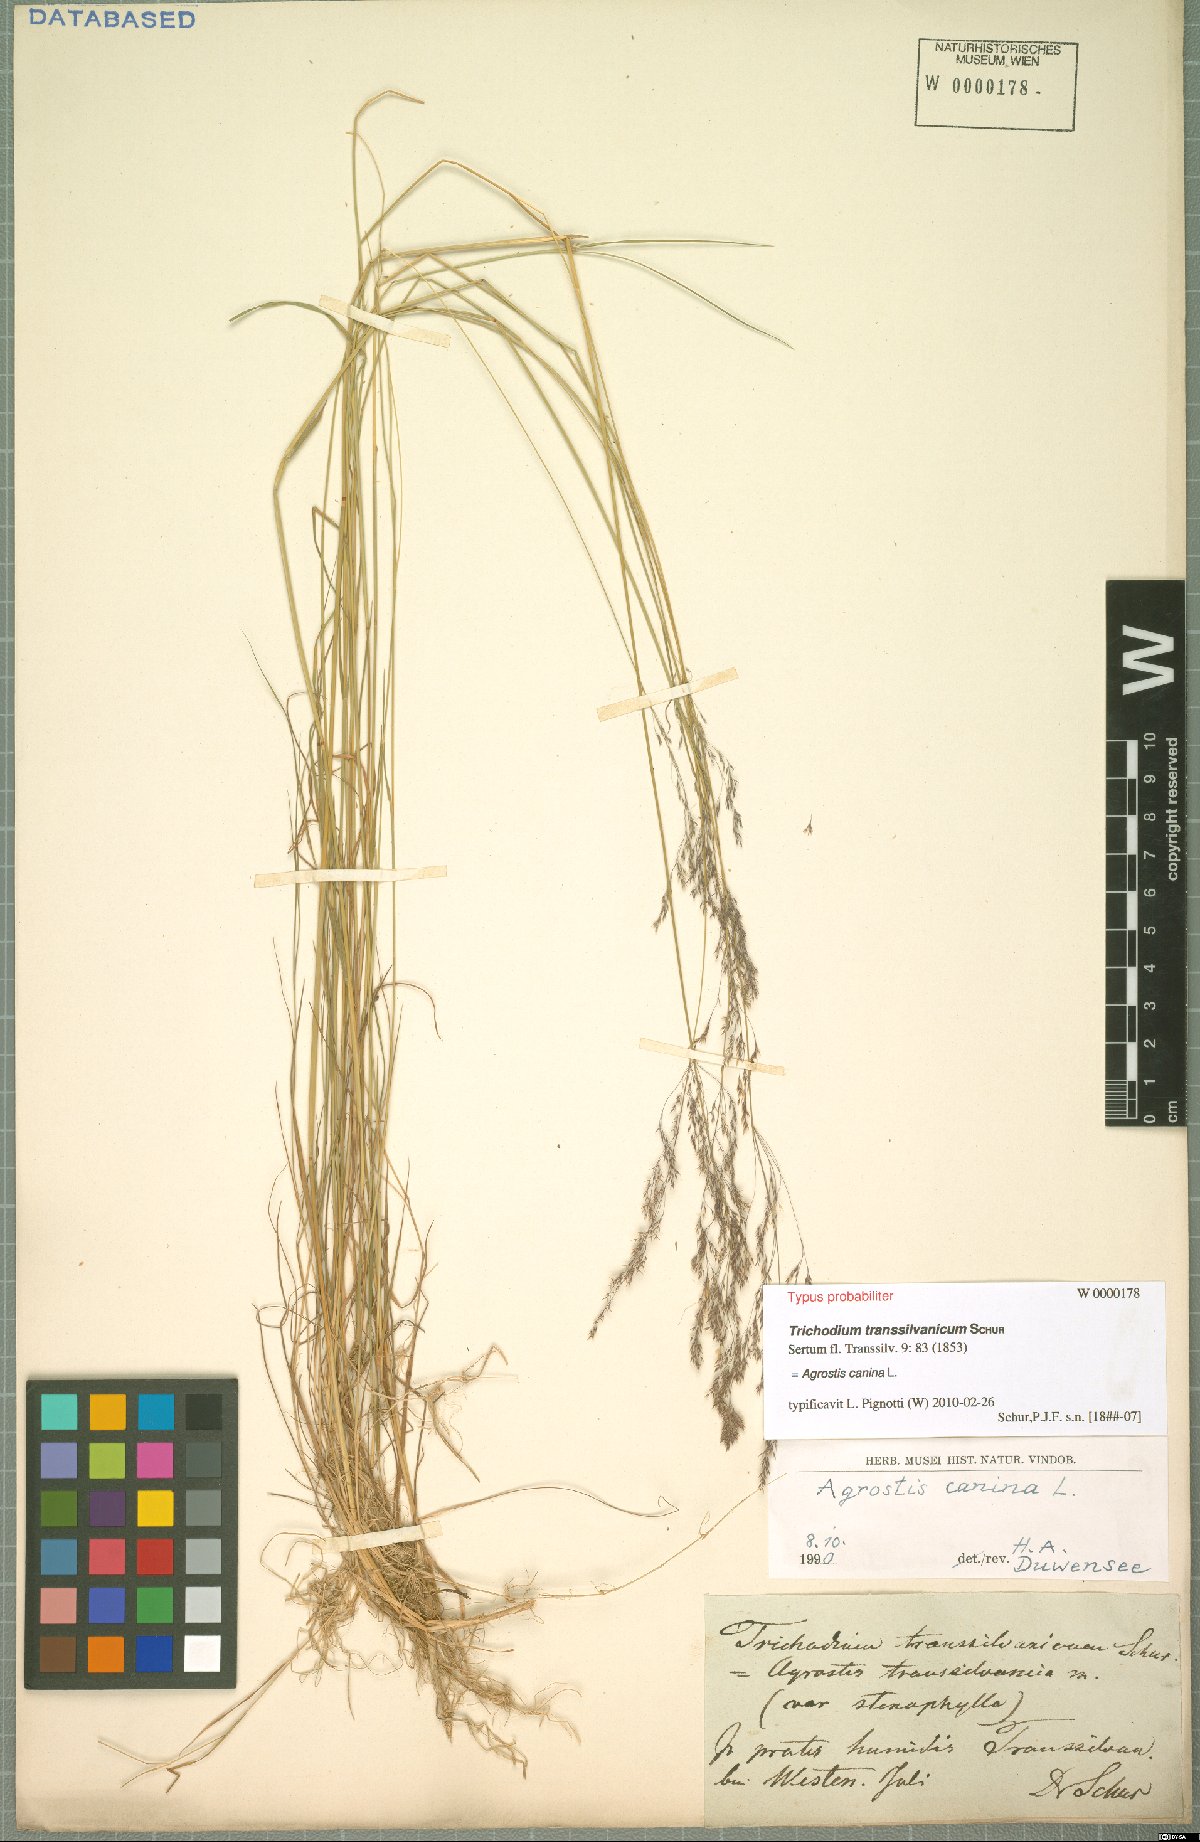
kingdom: Plantae
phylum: Tracheophyta
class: Liliopsida
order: Poales
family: Poaceae
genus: Agrostis
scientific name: Agrostis canina
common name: Velvet bent
